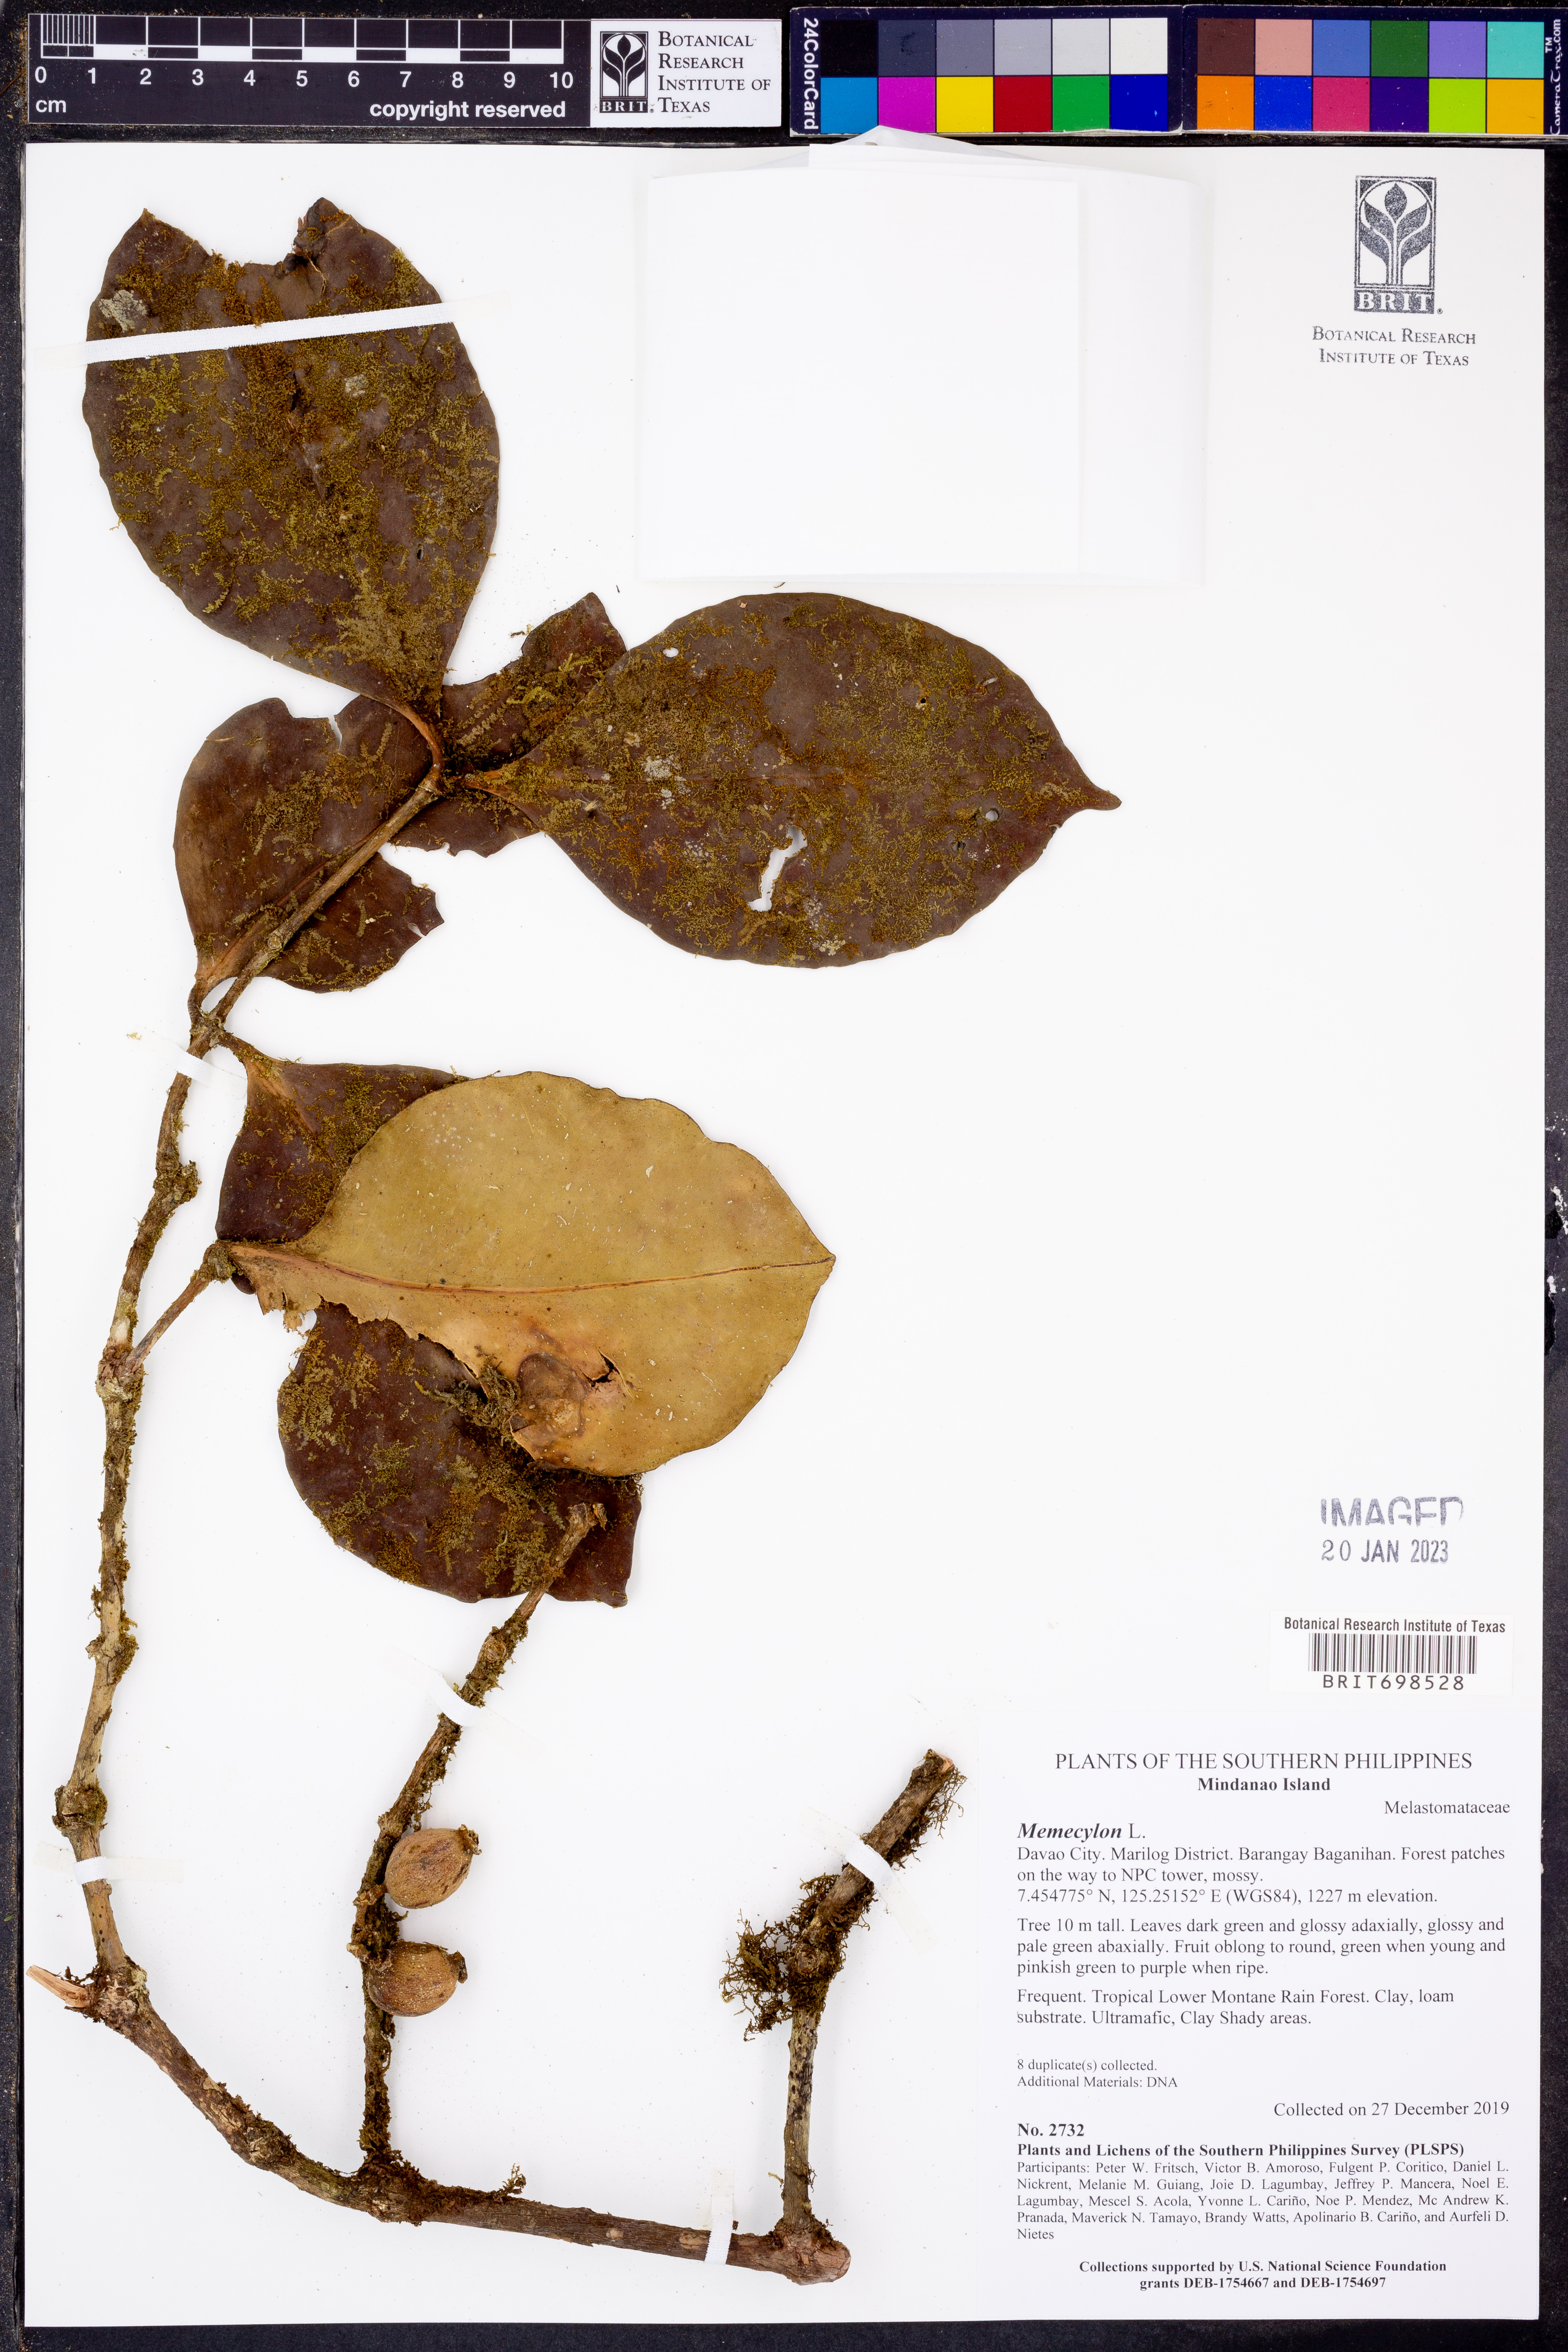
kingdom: Plantae
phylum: Tracheophyta
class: Magnoliopsida
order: Myrtales
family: Melastomataceae
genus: Memecylon
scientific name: Memecylon
